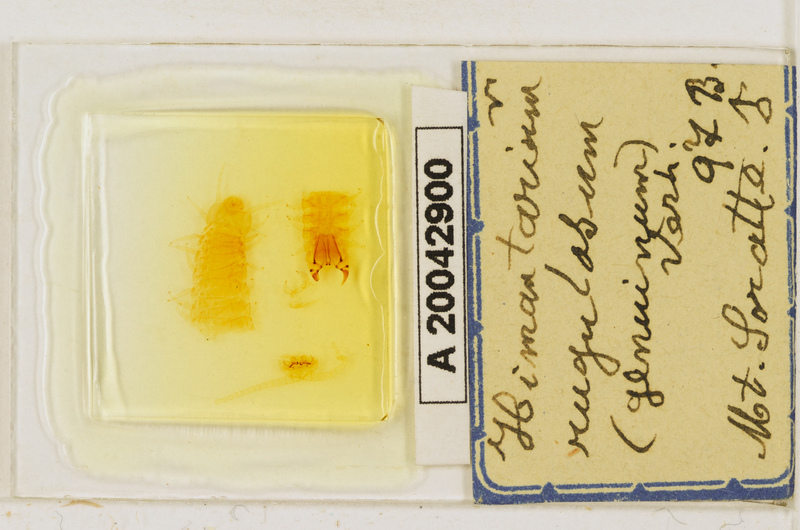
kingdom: Animalia
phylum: Arthropoda
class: Chilopoda
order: Geophilomorpha
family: Himantariidae
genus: Himantarium
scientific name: Himantarium gabrielis
